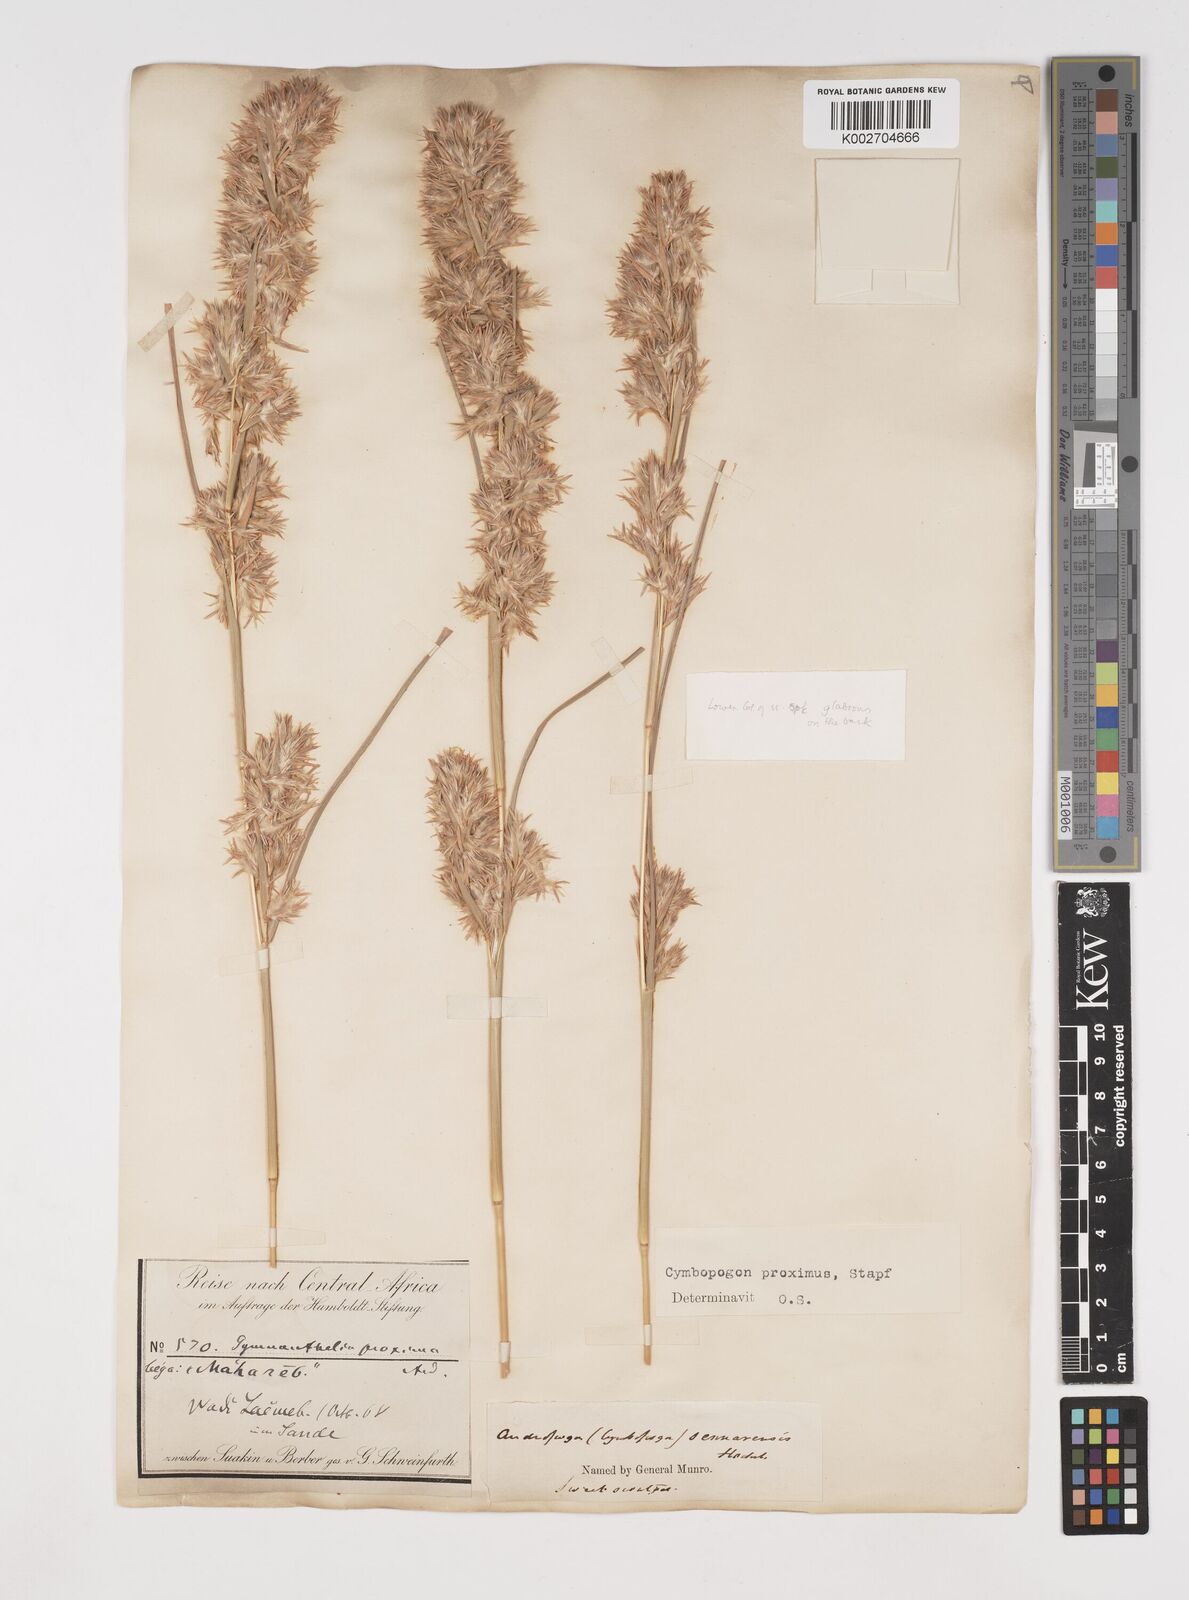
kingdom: Plantae
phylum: Tracheophyta
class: Liliopsida
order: Poales
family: Poaceae
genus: Cymbopogon
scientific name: Cymbopogon schoenanthus
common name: Geranium grass
